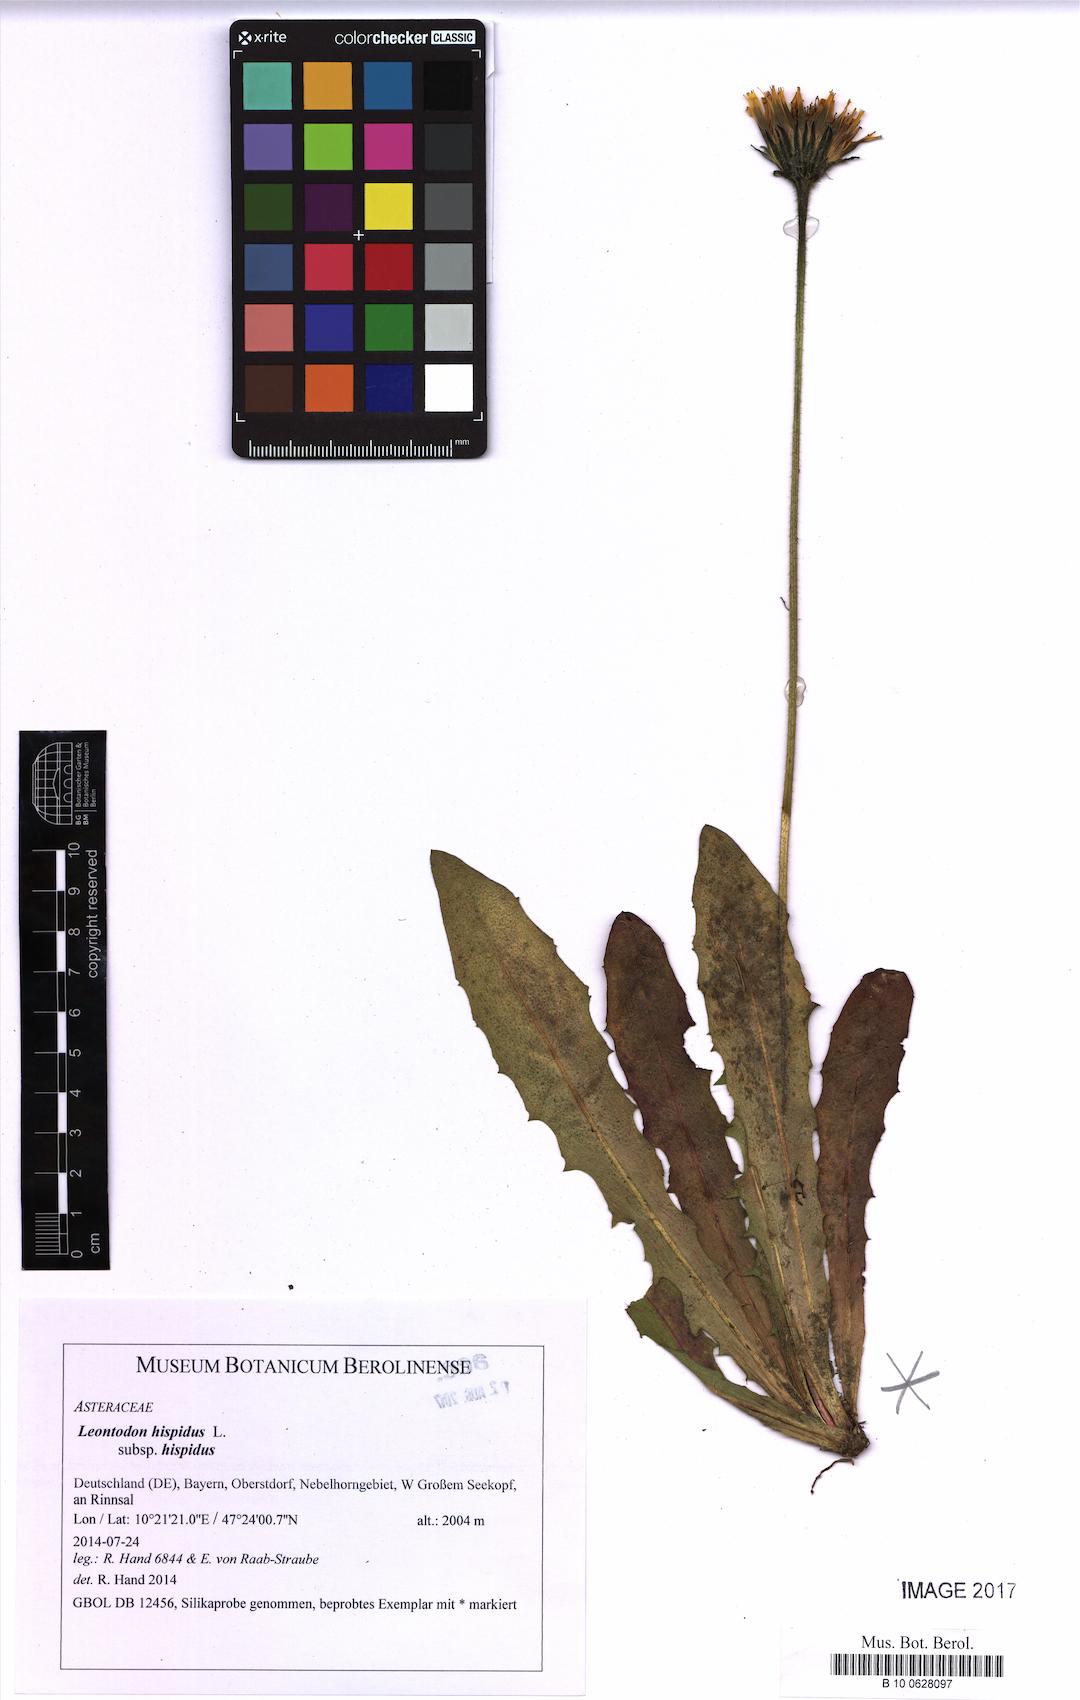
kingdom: Plantae
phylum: Tracheophyta
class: Magnoliopsida
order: Asterales
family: Asteraceae
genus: Leontodon
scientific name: Leontodon hispidus
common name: Rough hawkbit
